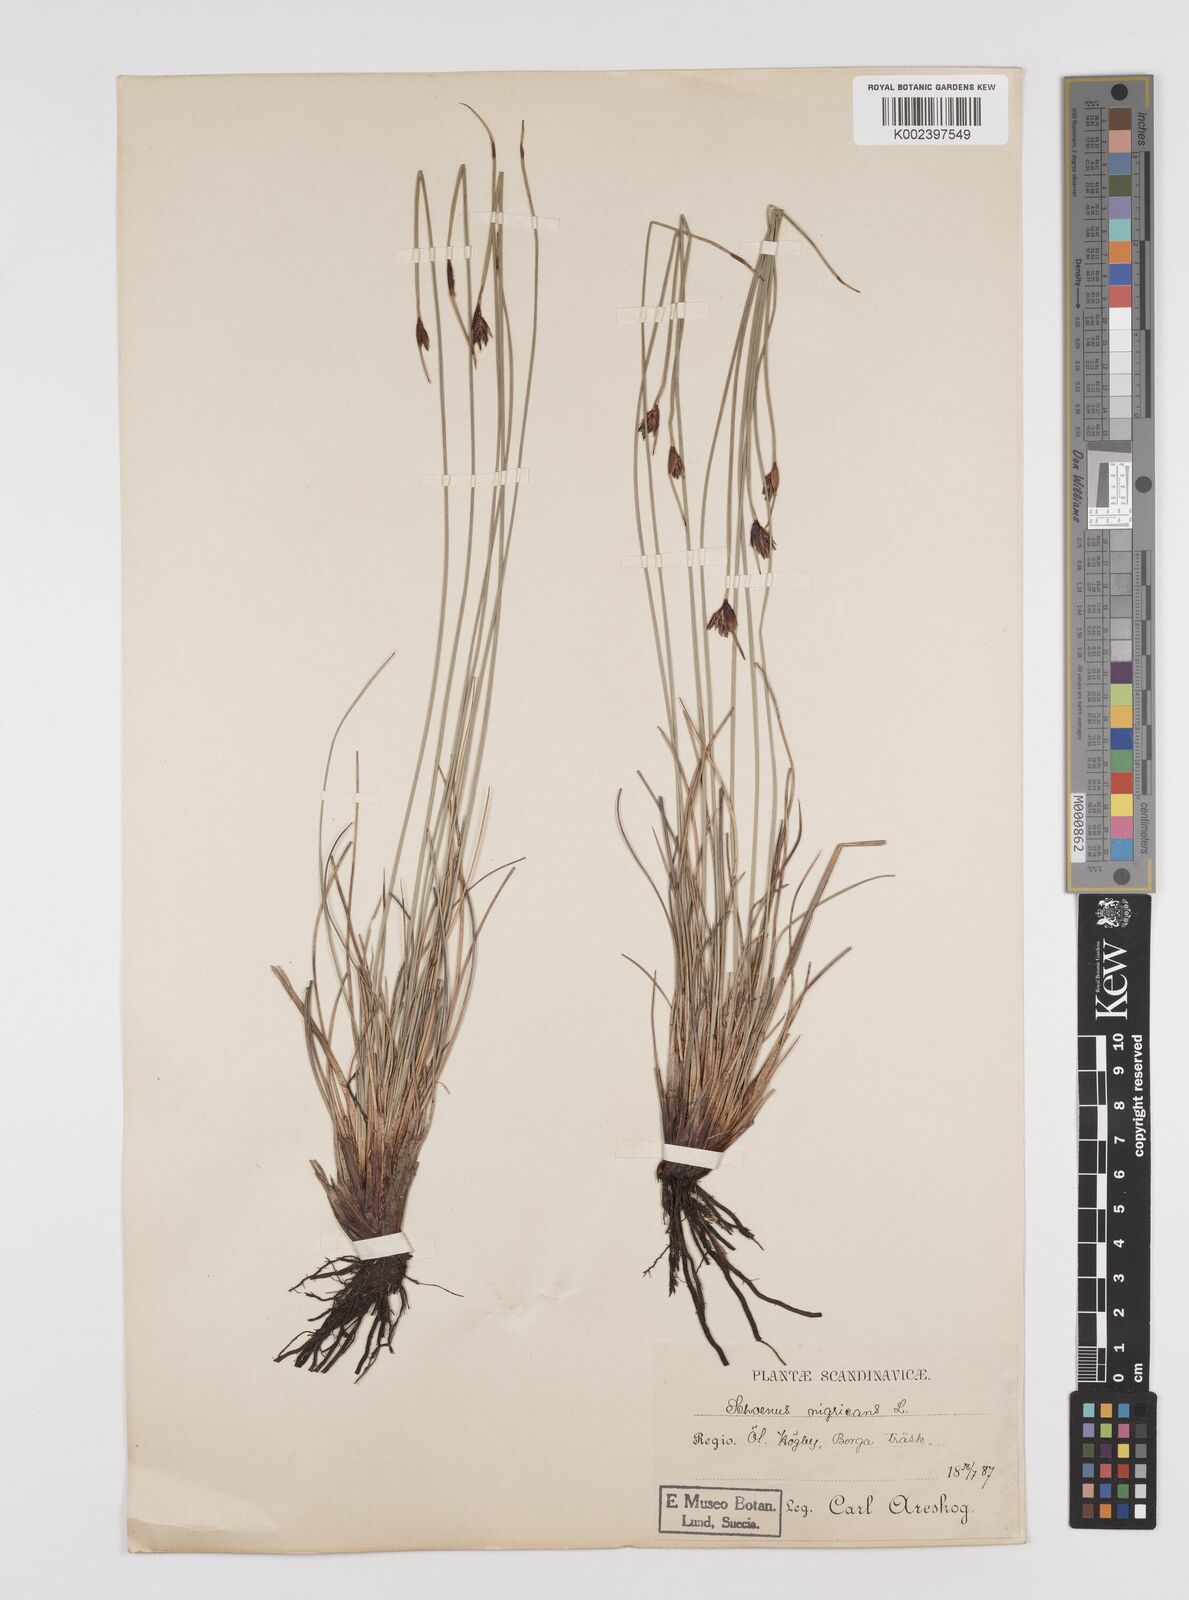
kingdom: Plantae
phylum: Tracheophyta
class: Liliopsida
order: Poales
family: Cyperaceae
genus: Schoenus
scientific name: Schoenus nigricans
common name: Black bog-rush
